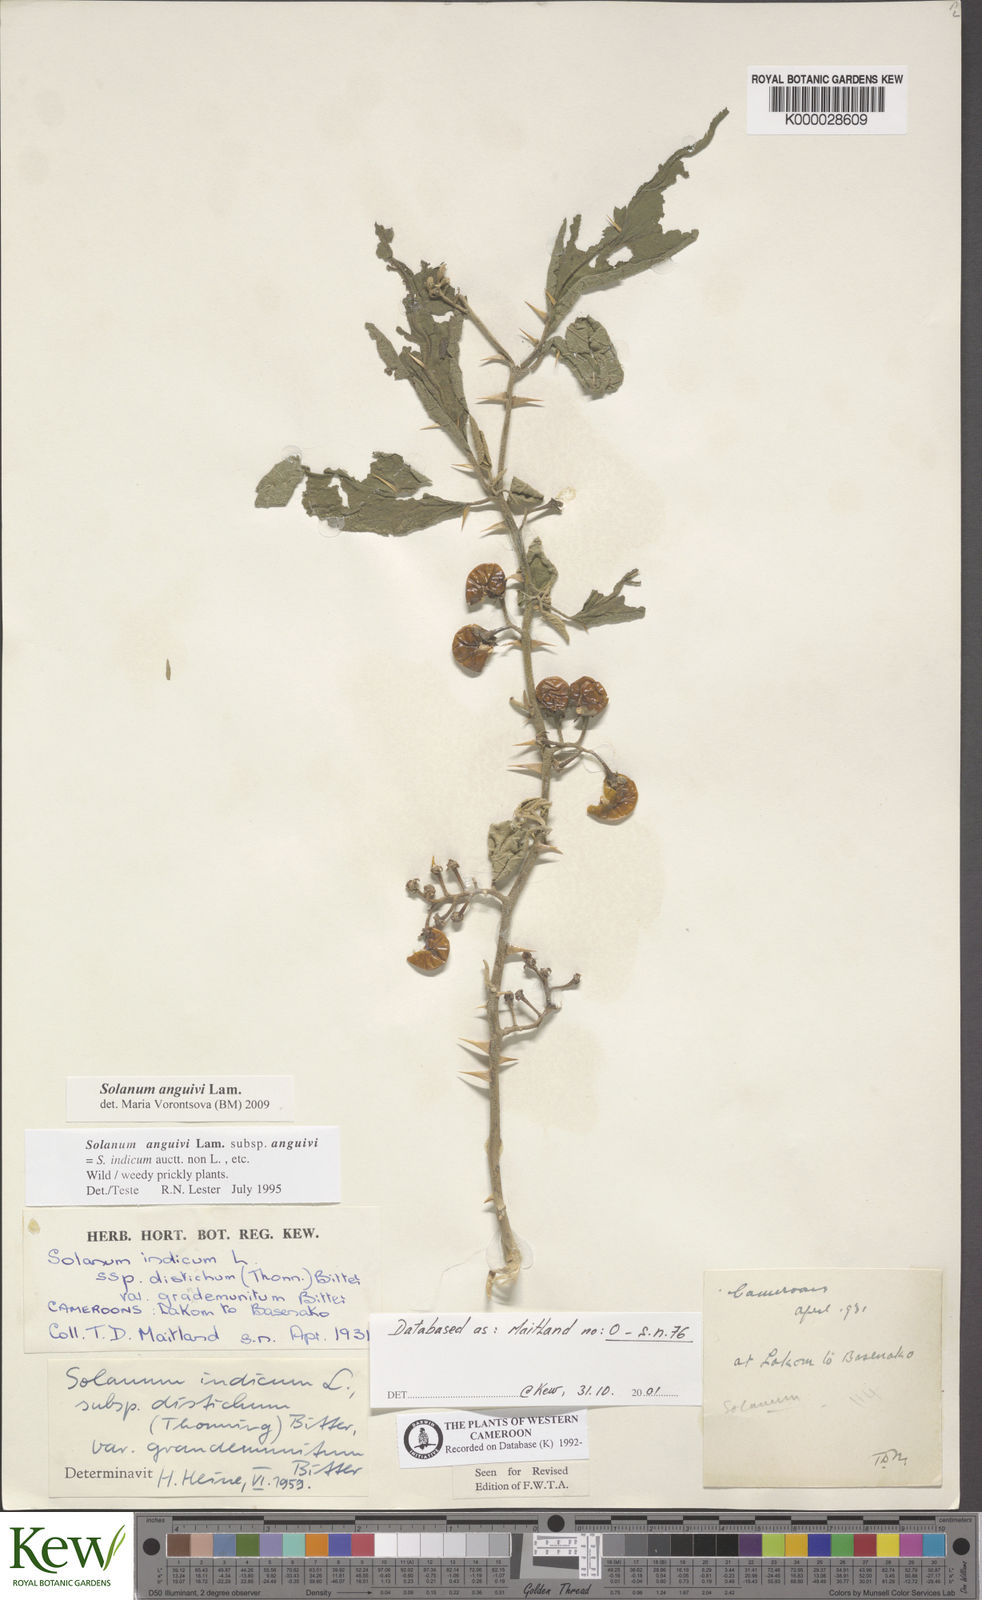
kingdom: Plantae
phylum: Tracheophyta
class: Magnoliopsida
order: Solanales
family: Solanaceae
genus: Solanum
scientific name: Solanum anguivi
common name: Forest bitterberry
